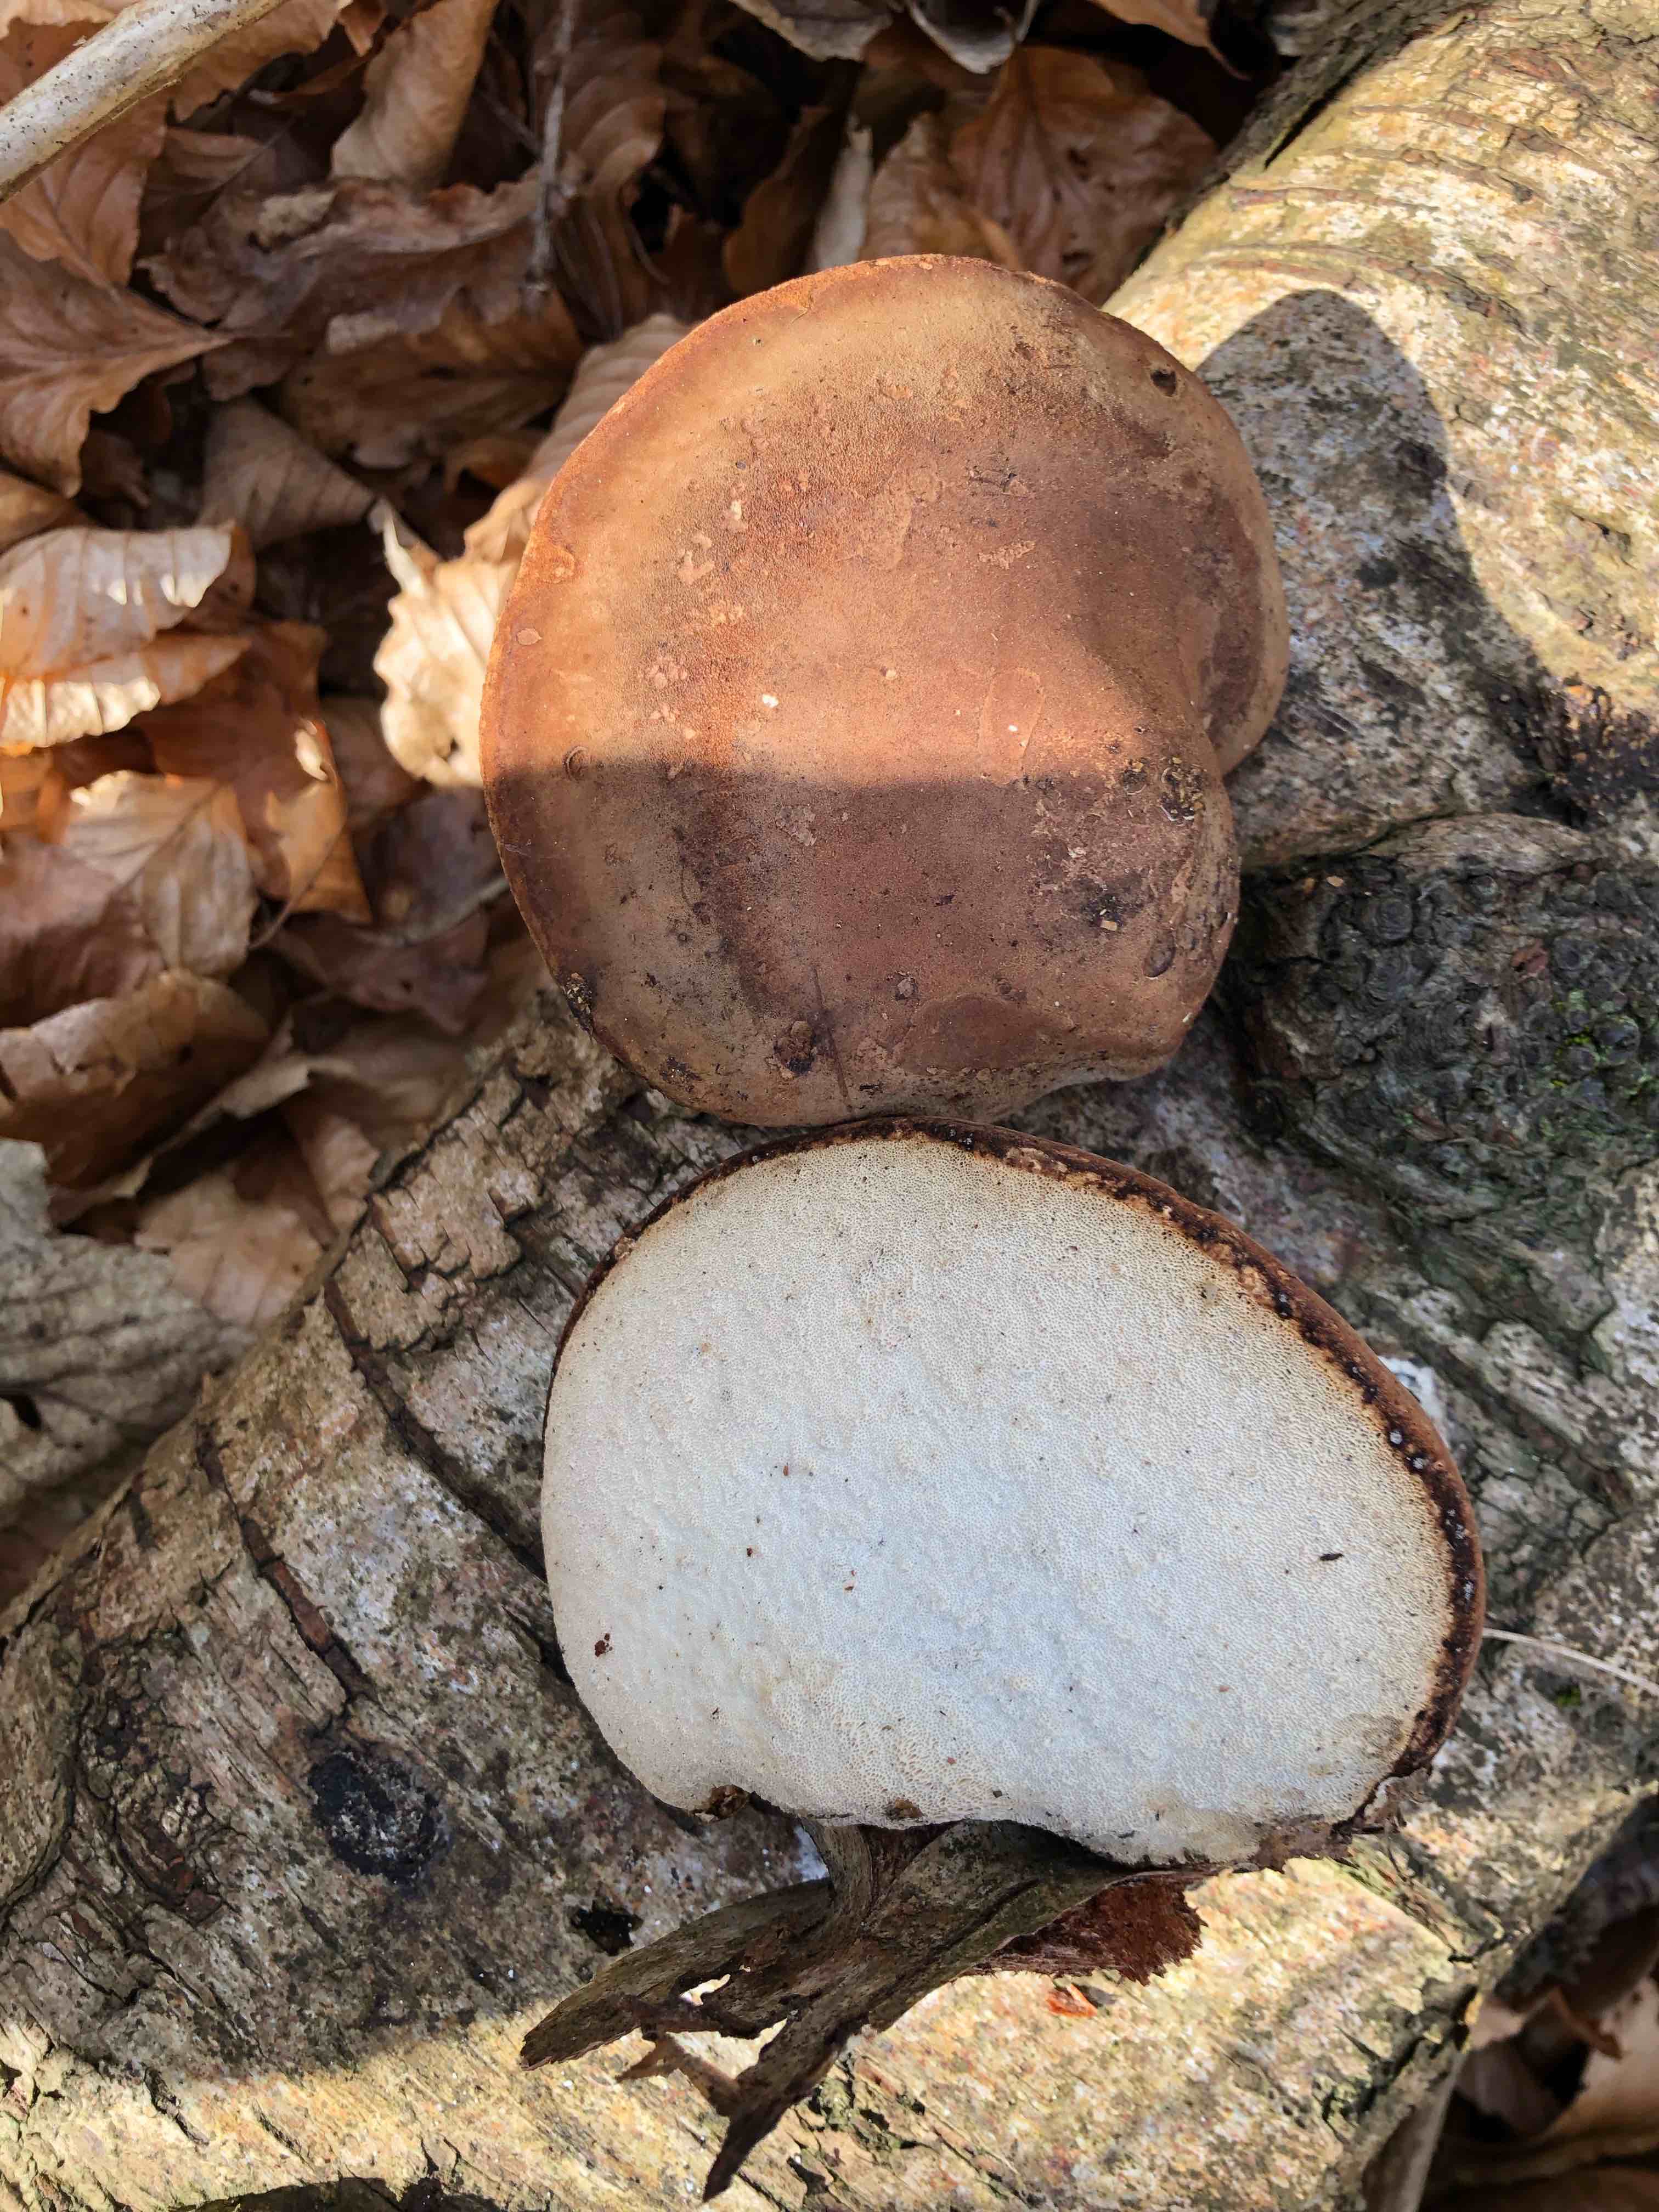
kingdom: Fungi
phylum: Basidiomycota
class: Agaricomycetes
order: Polyporales
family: Fomitopsidaceae
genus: Fomitopsis
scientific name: Fomitopsis betulina
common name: birkeporesvamp
